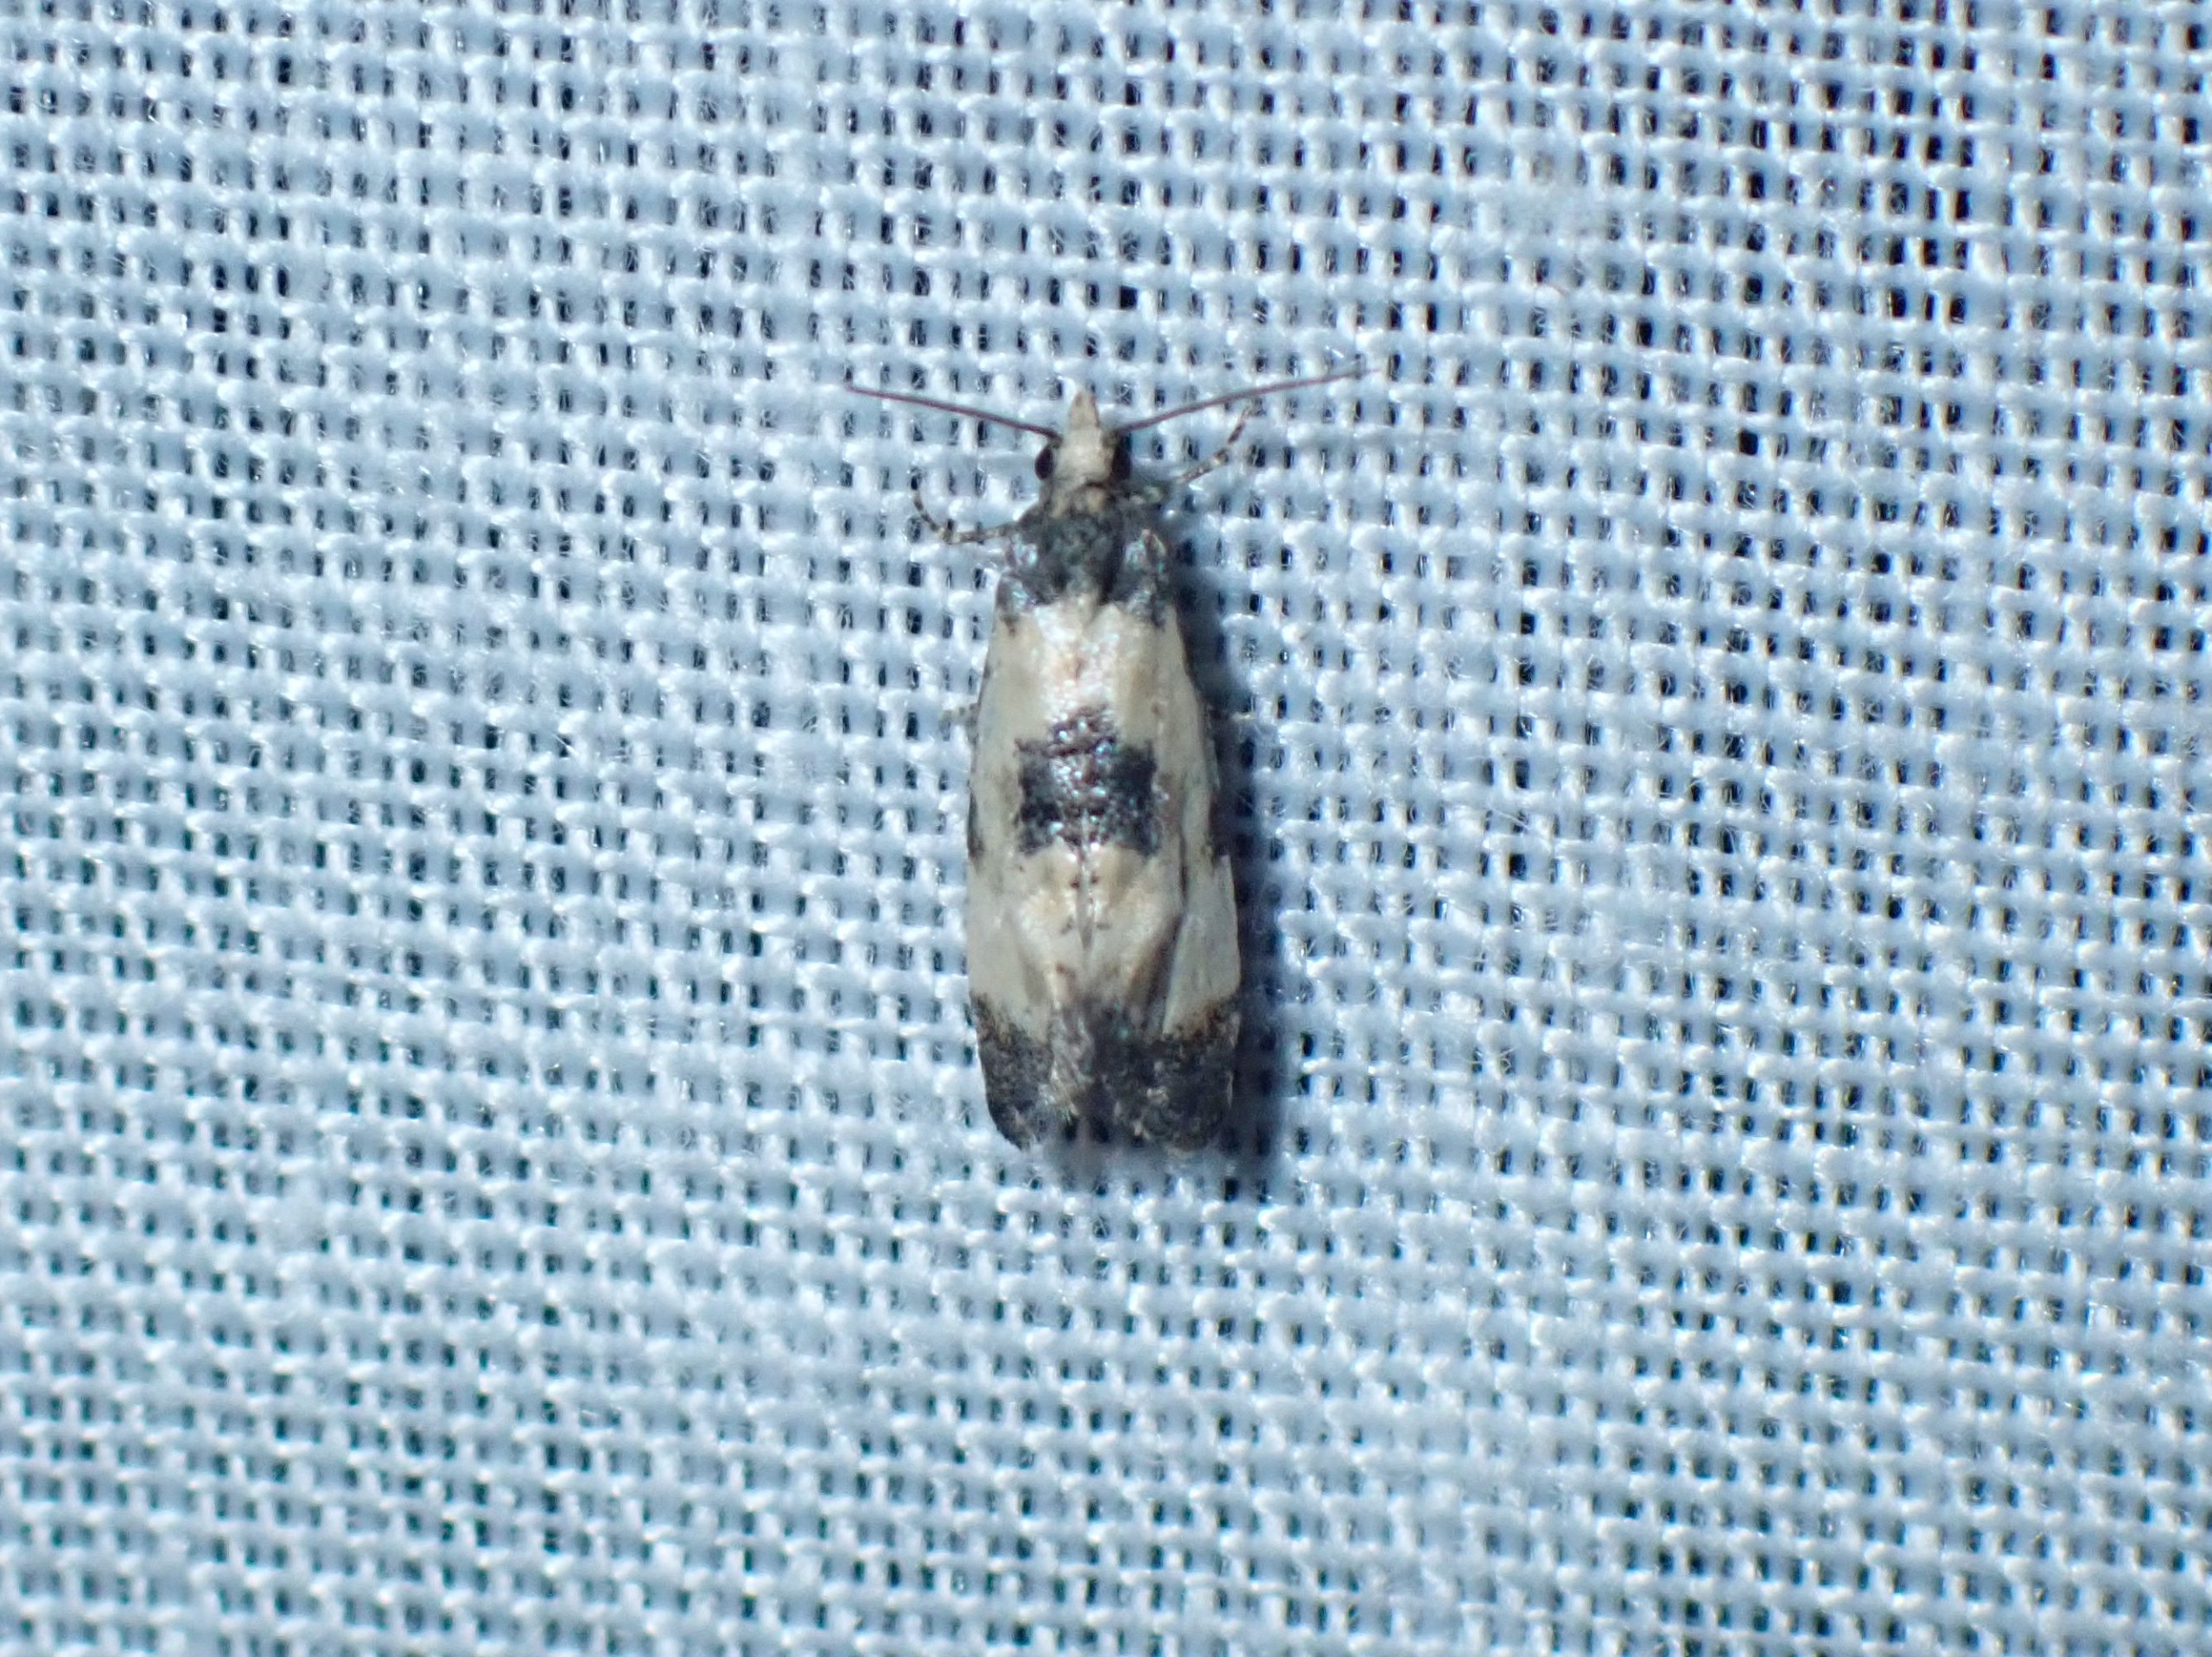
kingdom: Animalia
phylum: Arthropoda
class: Insecta
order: Lepidoptera
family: Tortricidae
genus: Cochylis
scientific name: Cochylis dubitana
